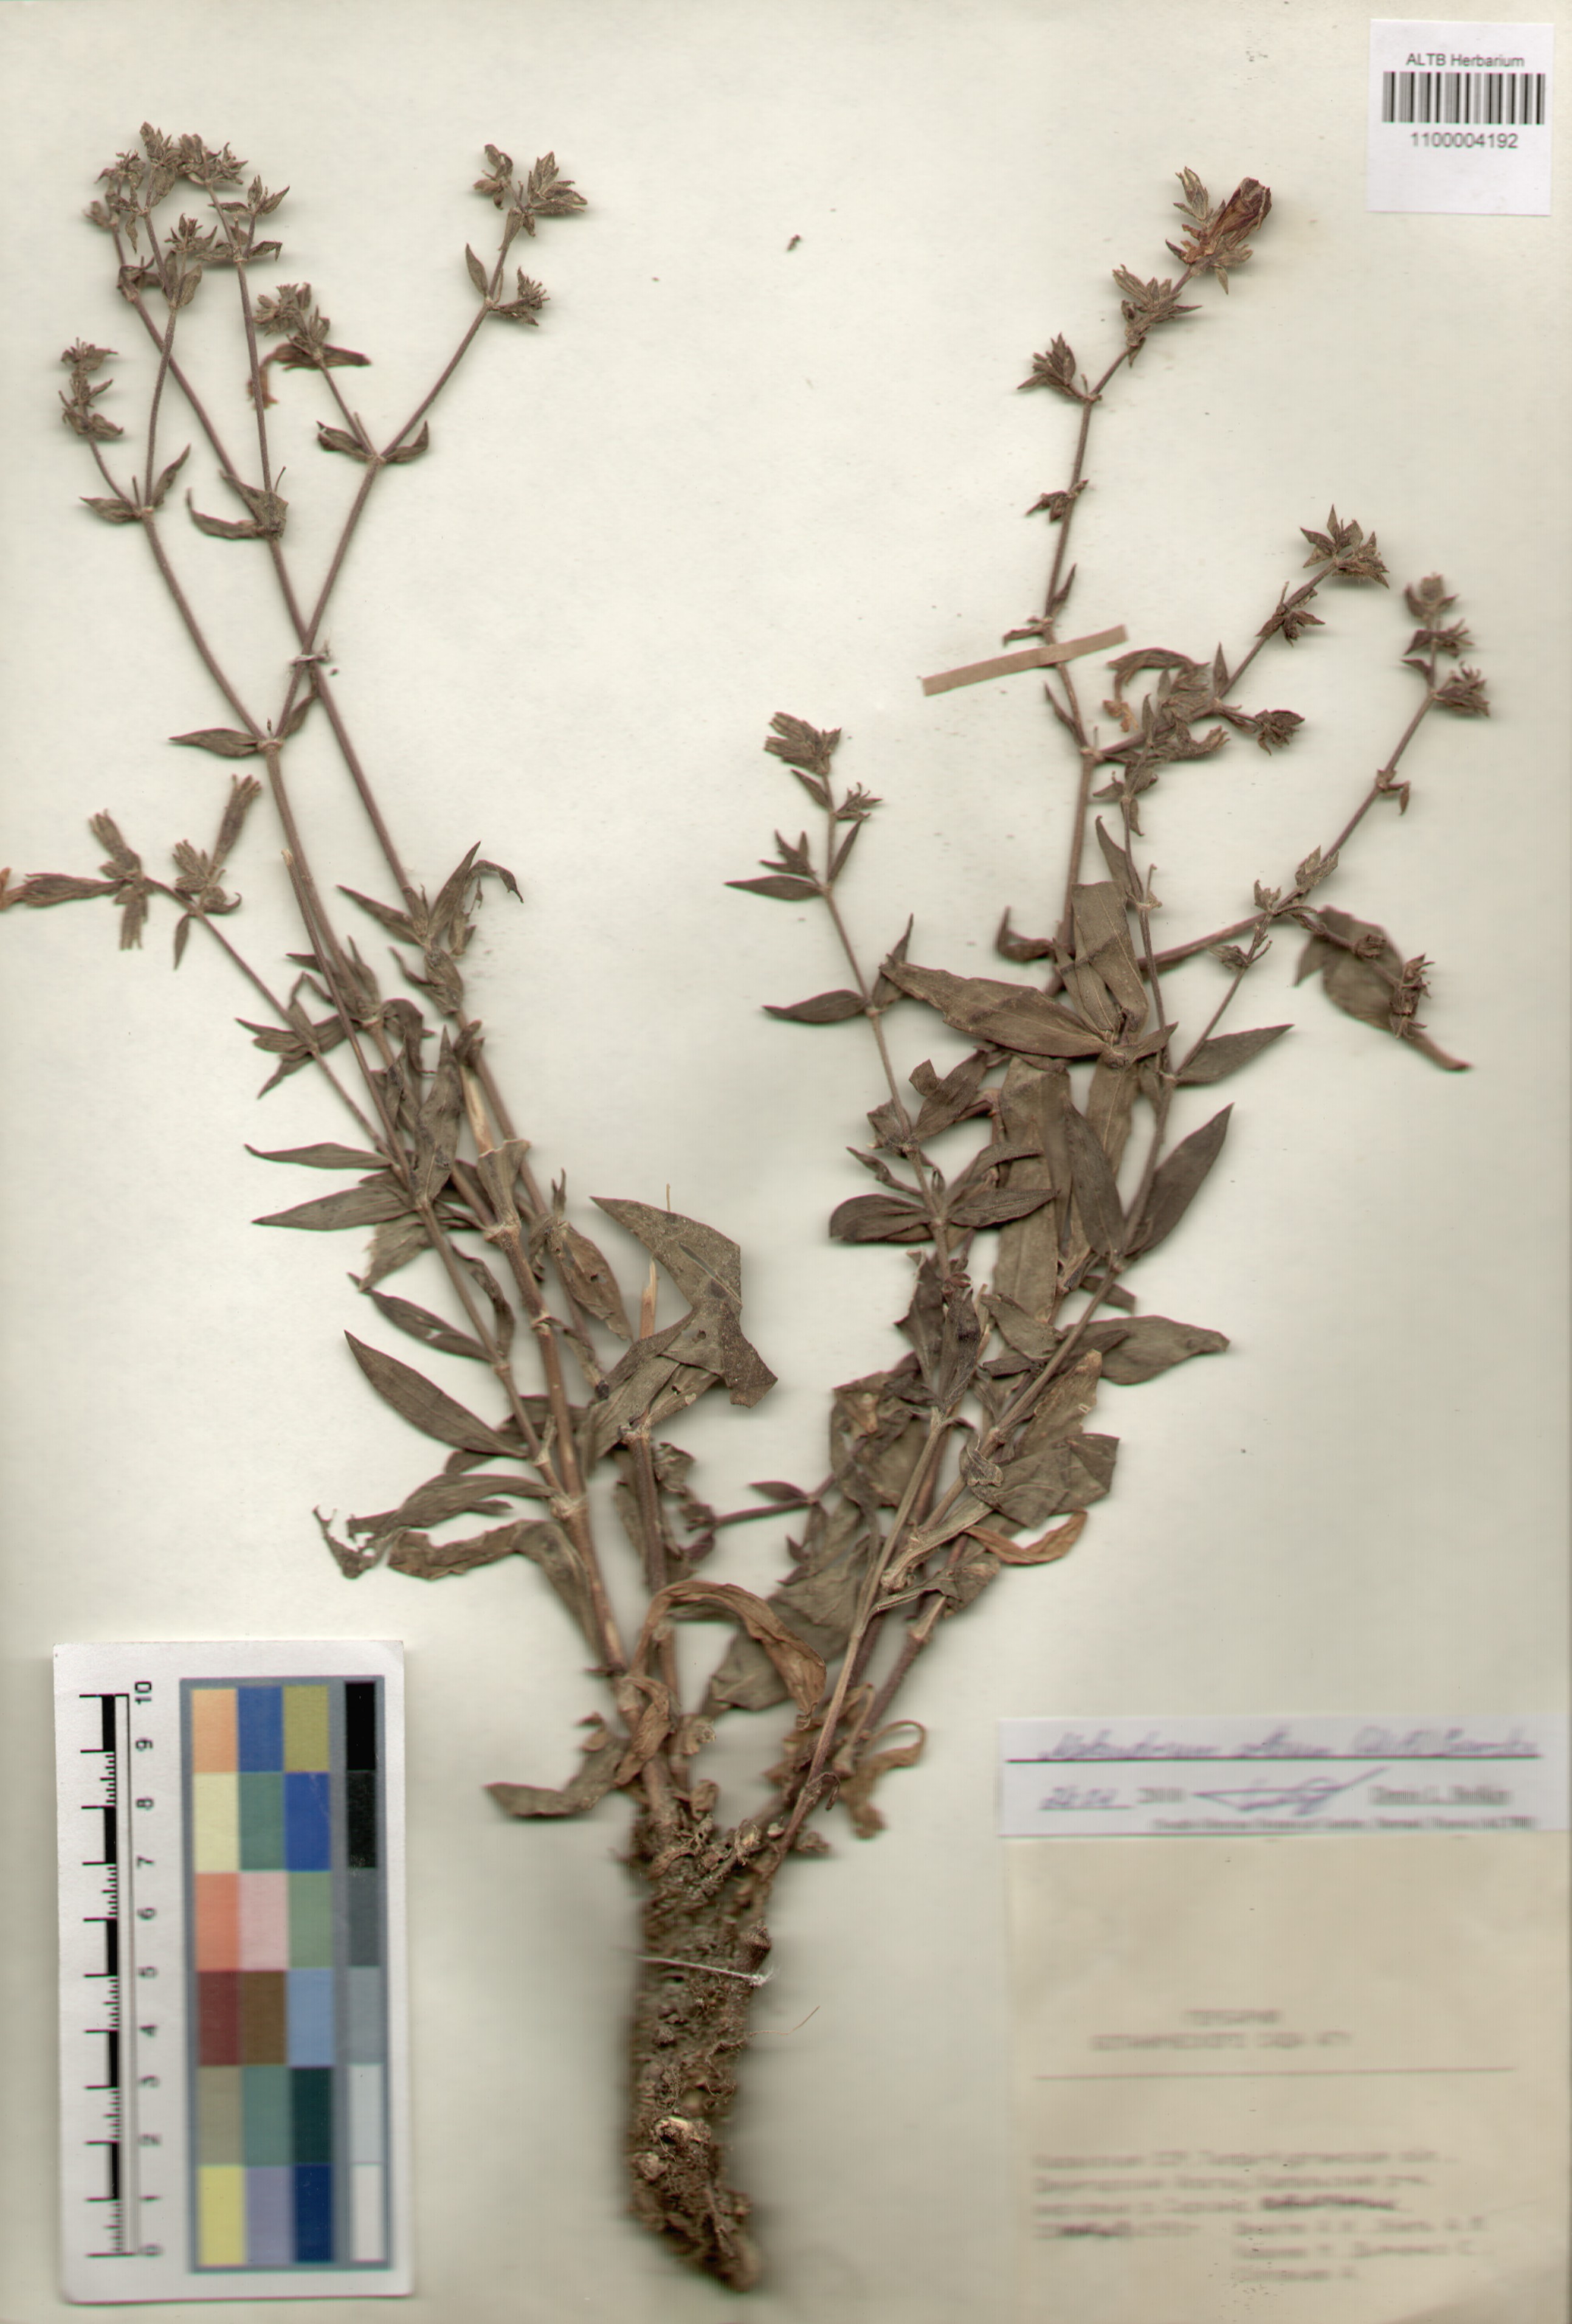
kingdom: Plantae
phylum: Tracheophyta
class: Magnoliopsida
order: Caryophyllales
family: Caryophyllaceae
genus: Silene
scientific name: Silene latifolia
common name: White campion
